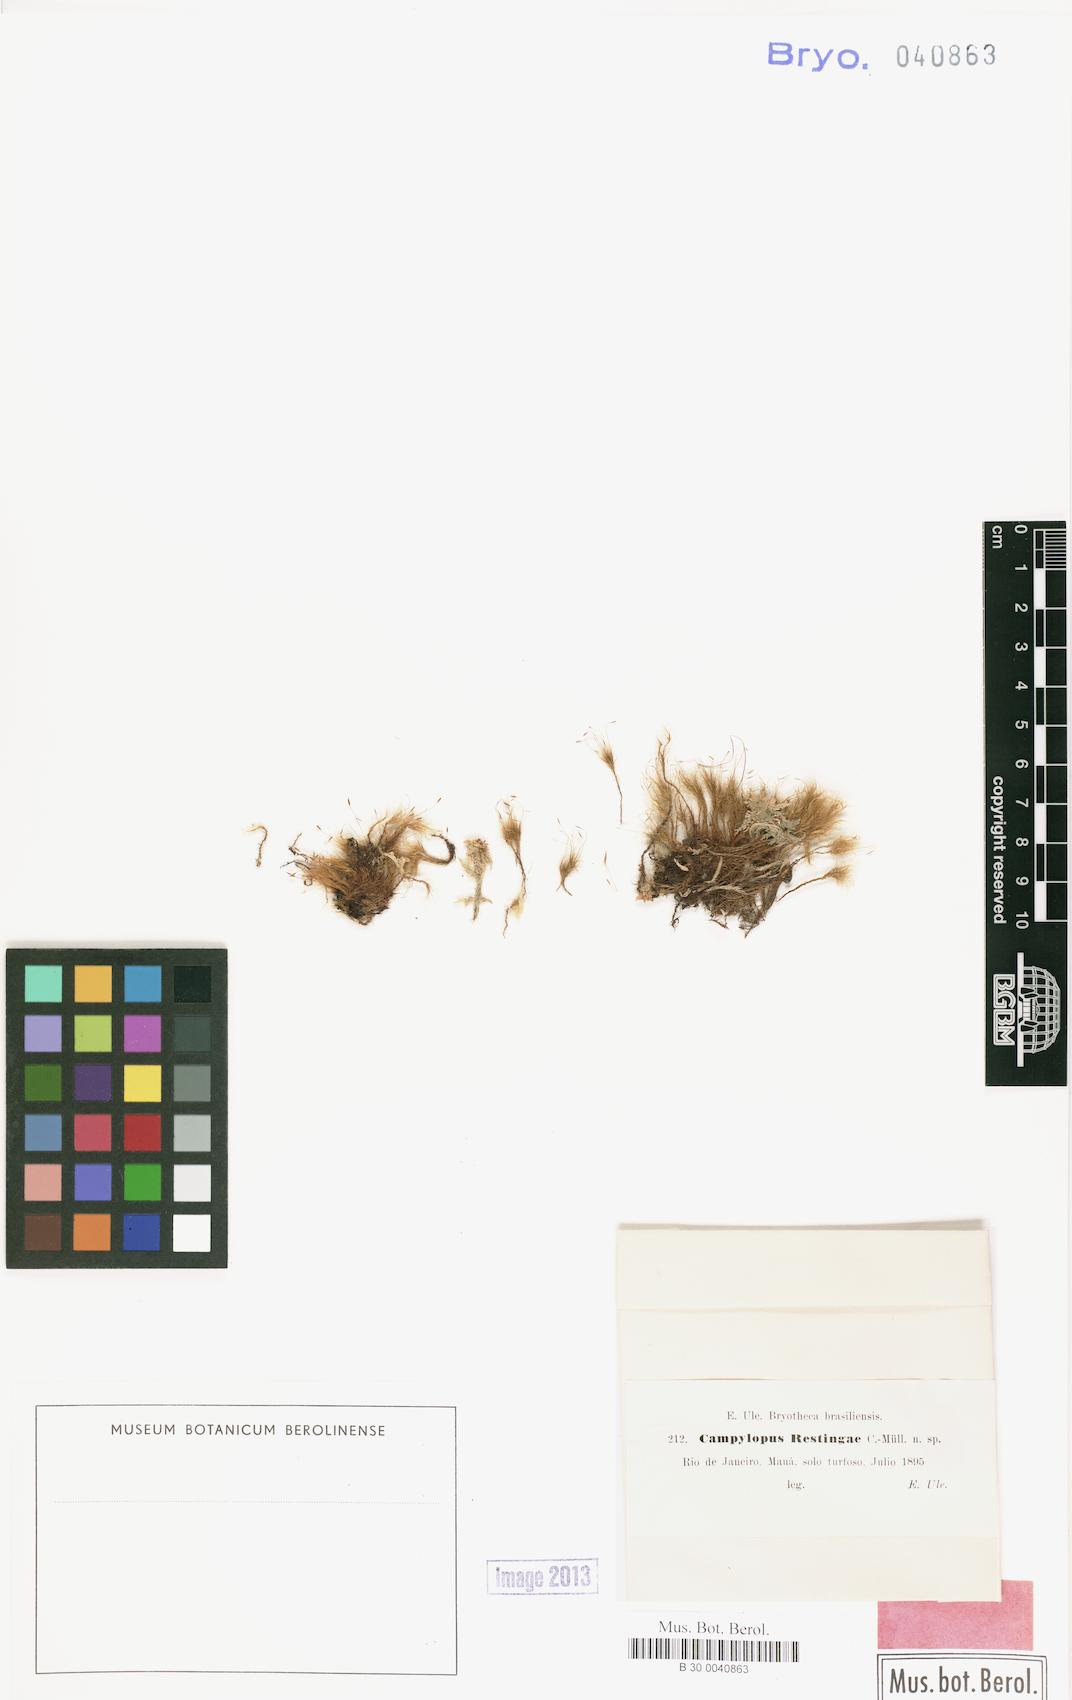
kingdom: Plantae
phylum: Bryophyta
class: Bryopsida
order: Dicranales
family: Leucobryaceae
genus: Campylopus
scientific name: Campylopus occultus
